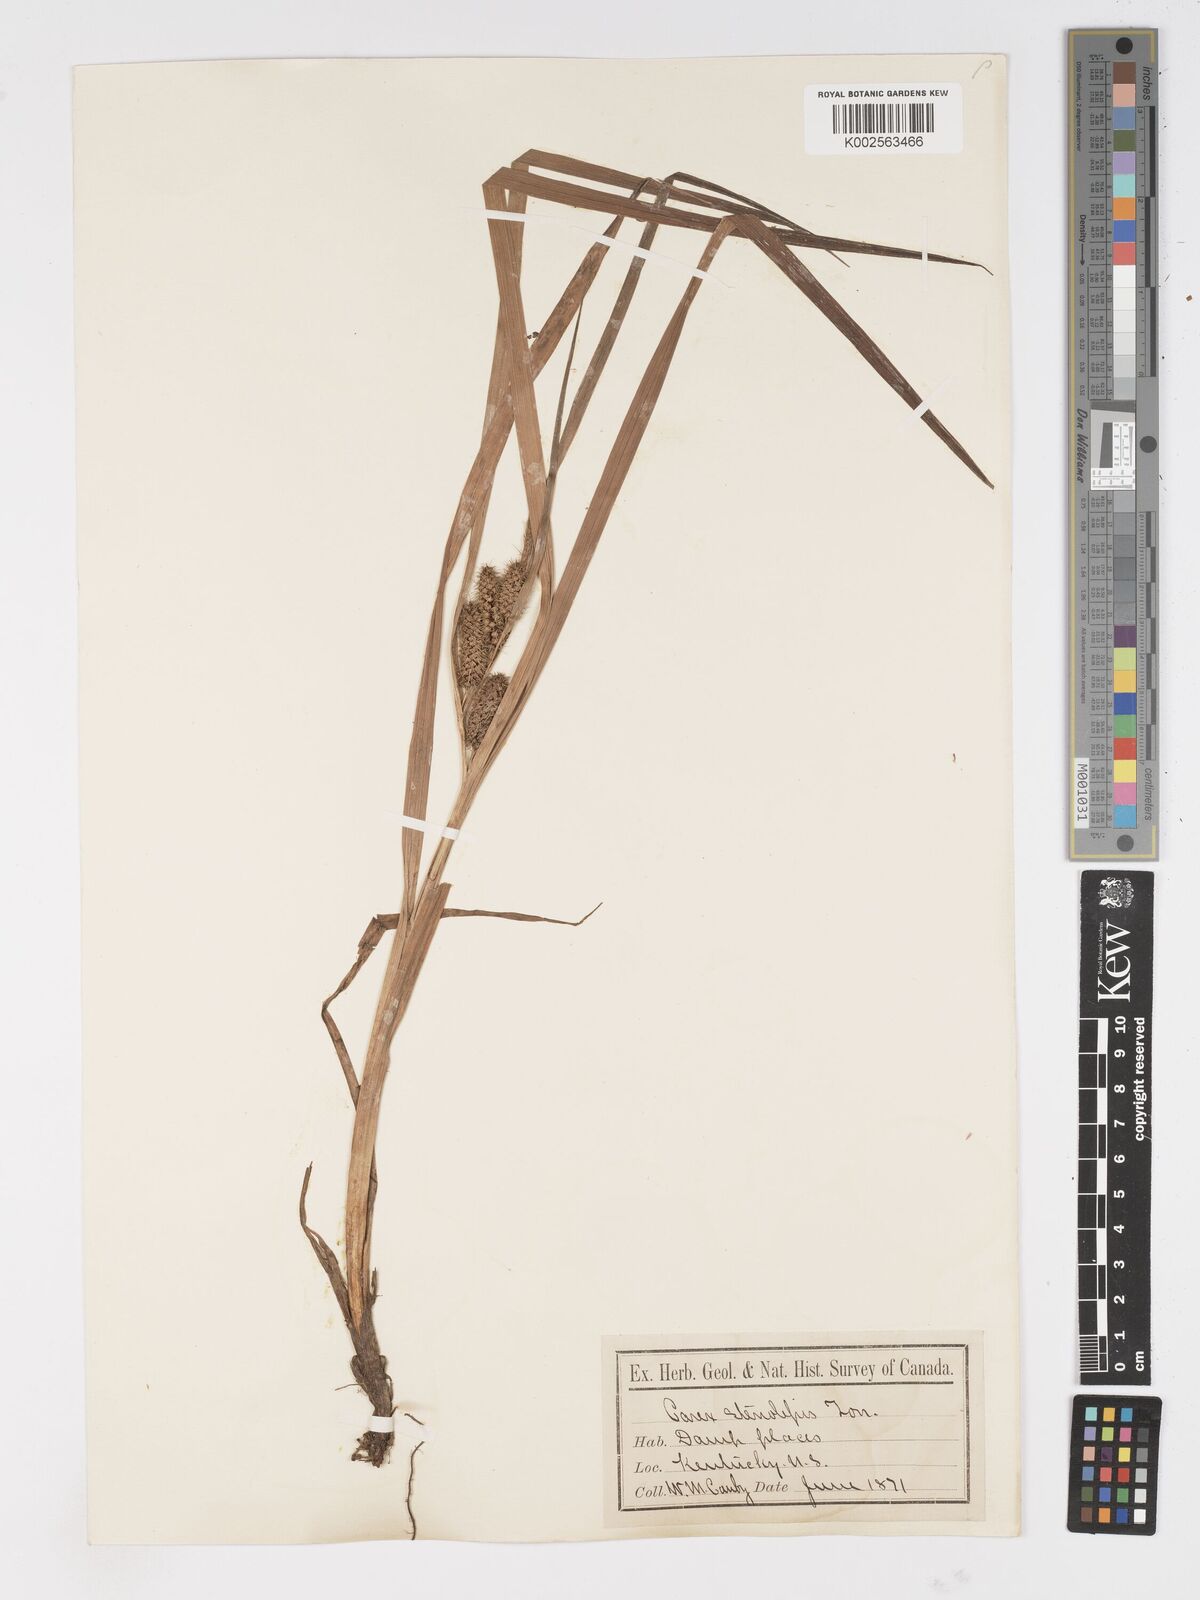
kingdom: Plantae
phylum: Tracheophyta
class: Liliopsida
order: Poales
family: Cyperaceae
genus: Carex
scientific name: Carex frankii
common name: Frank's sedge
